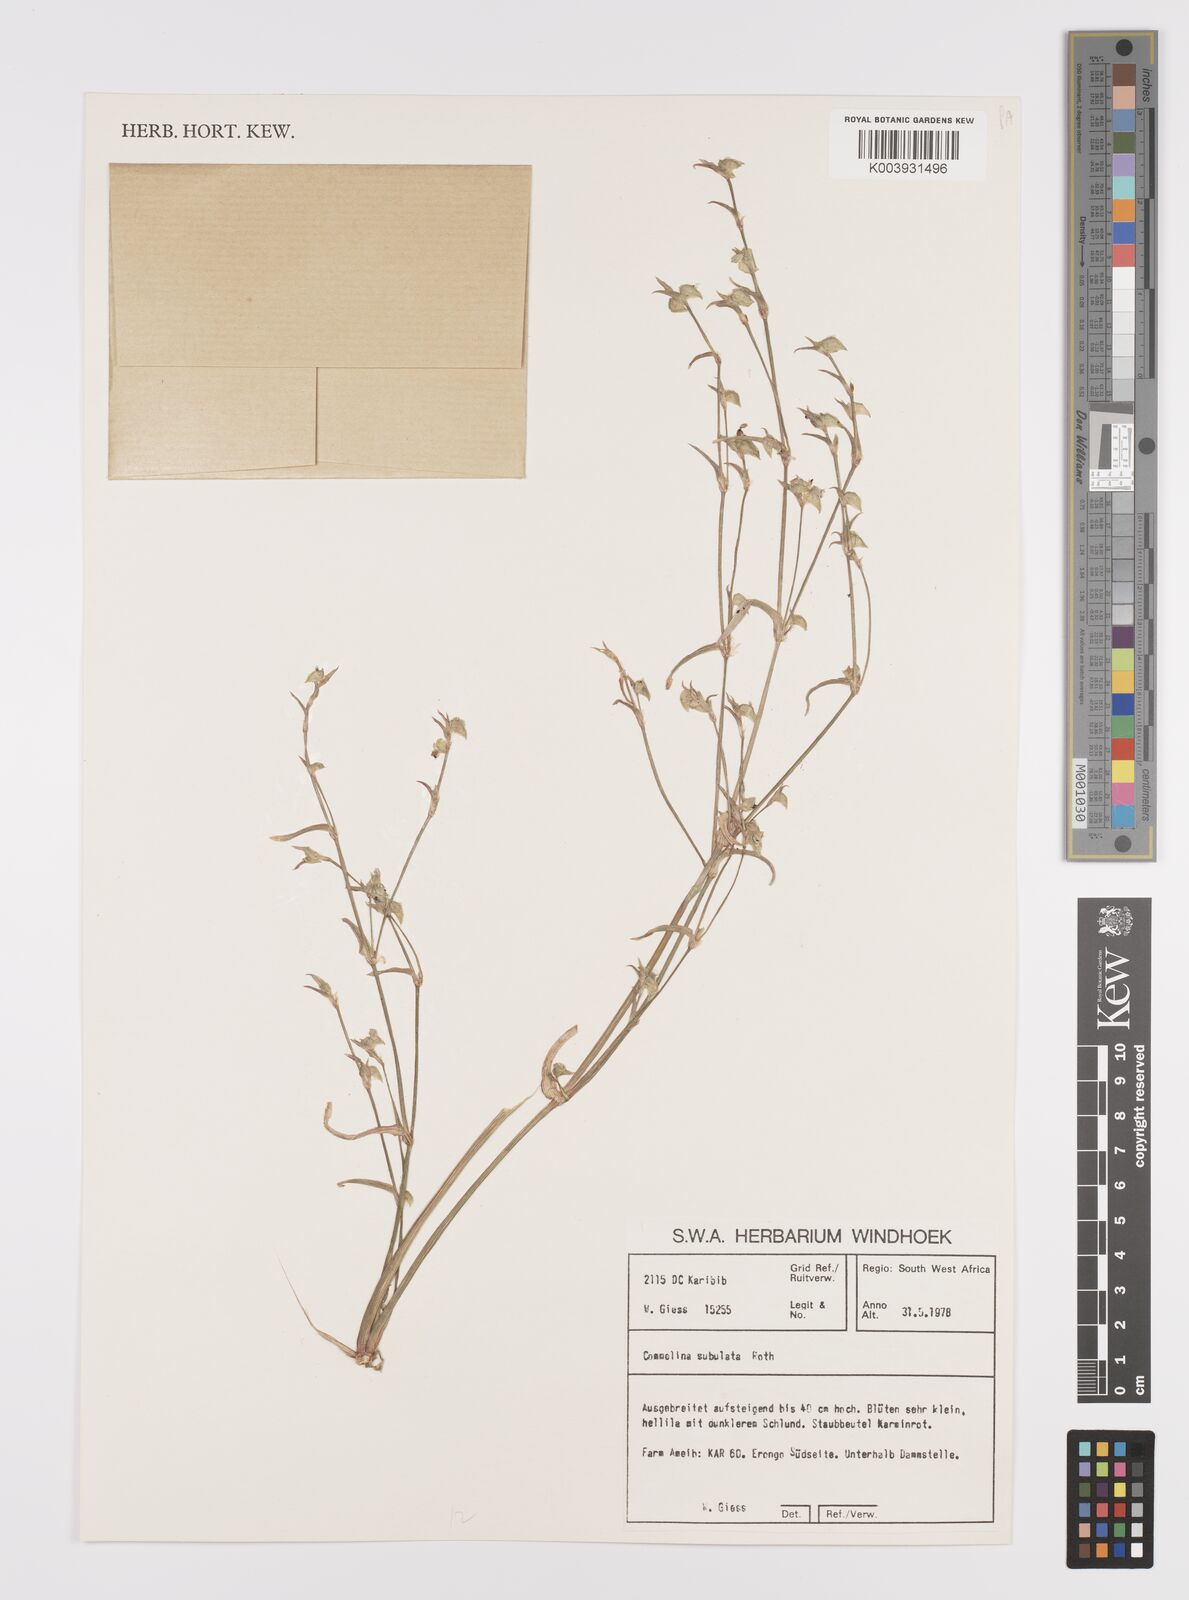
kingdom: Plantae
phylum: Tracheophyta
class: Liliopsida
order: Commelinales
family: Commelinaceae
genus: Commelina
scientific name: Commelina subulata
